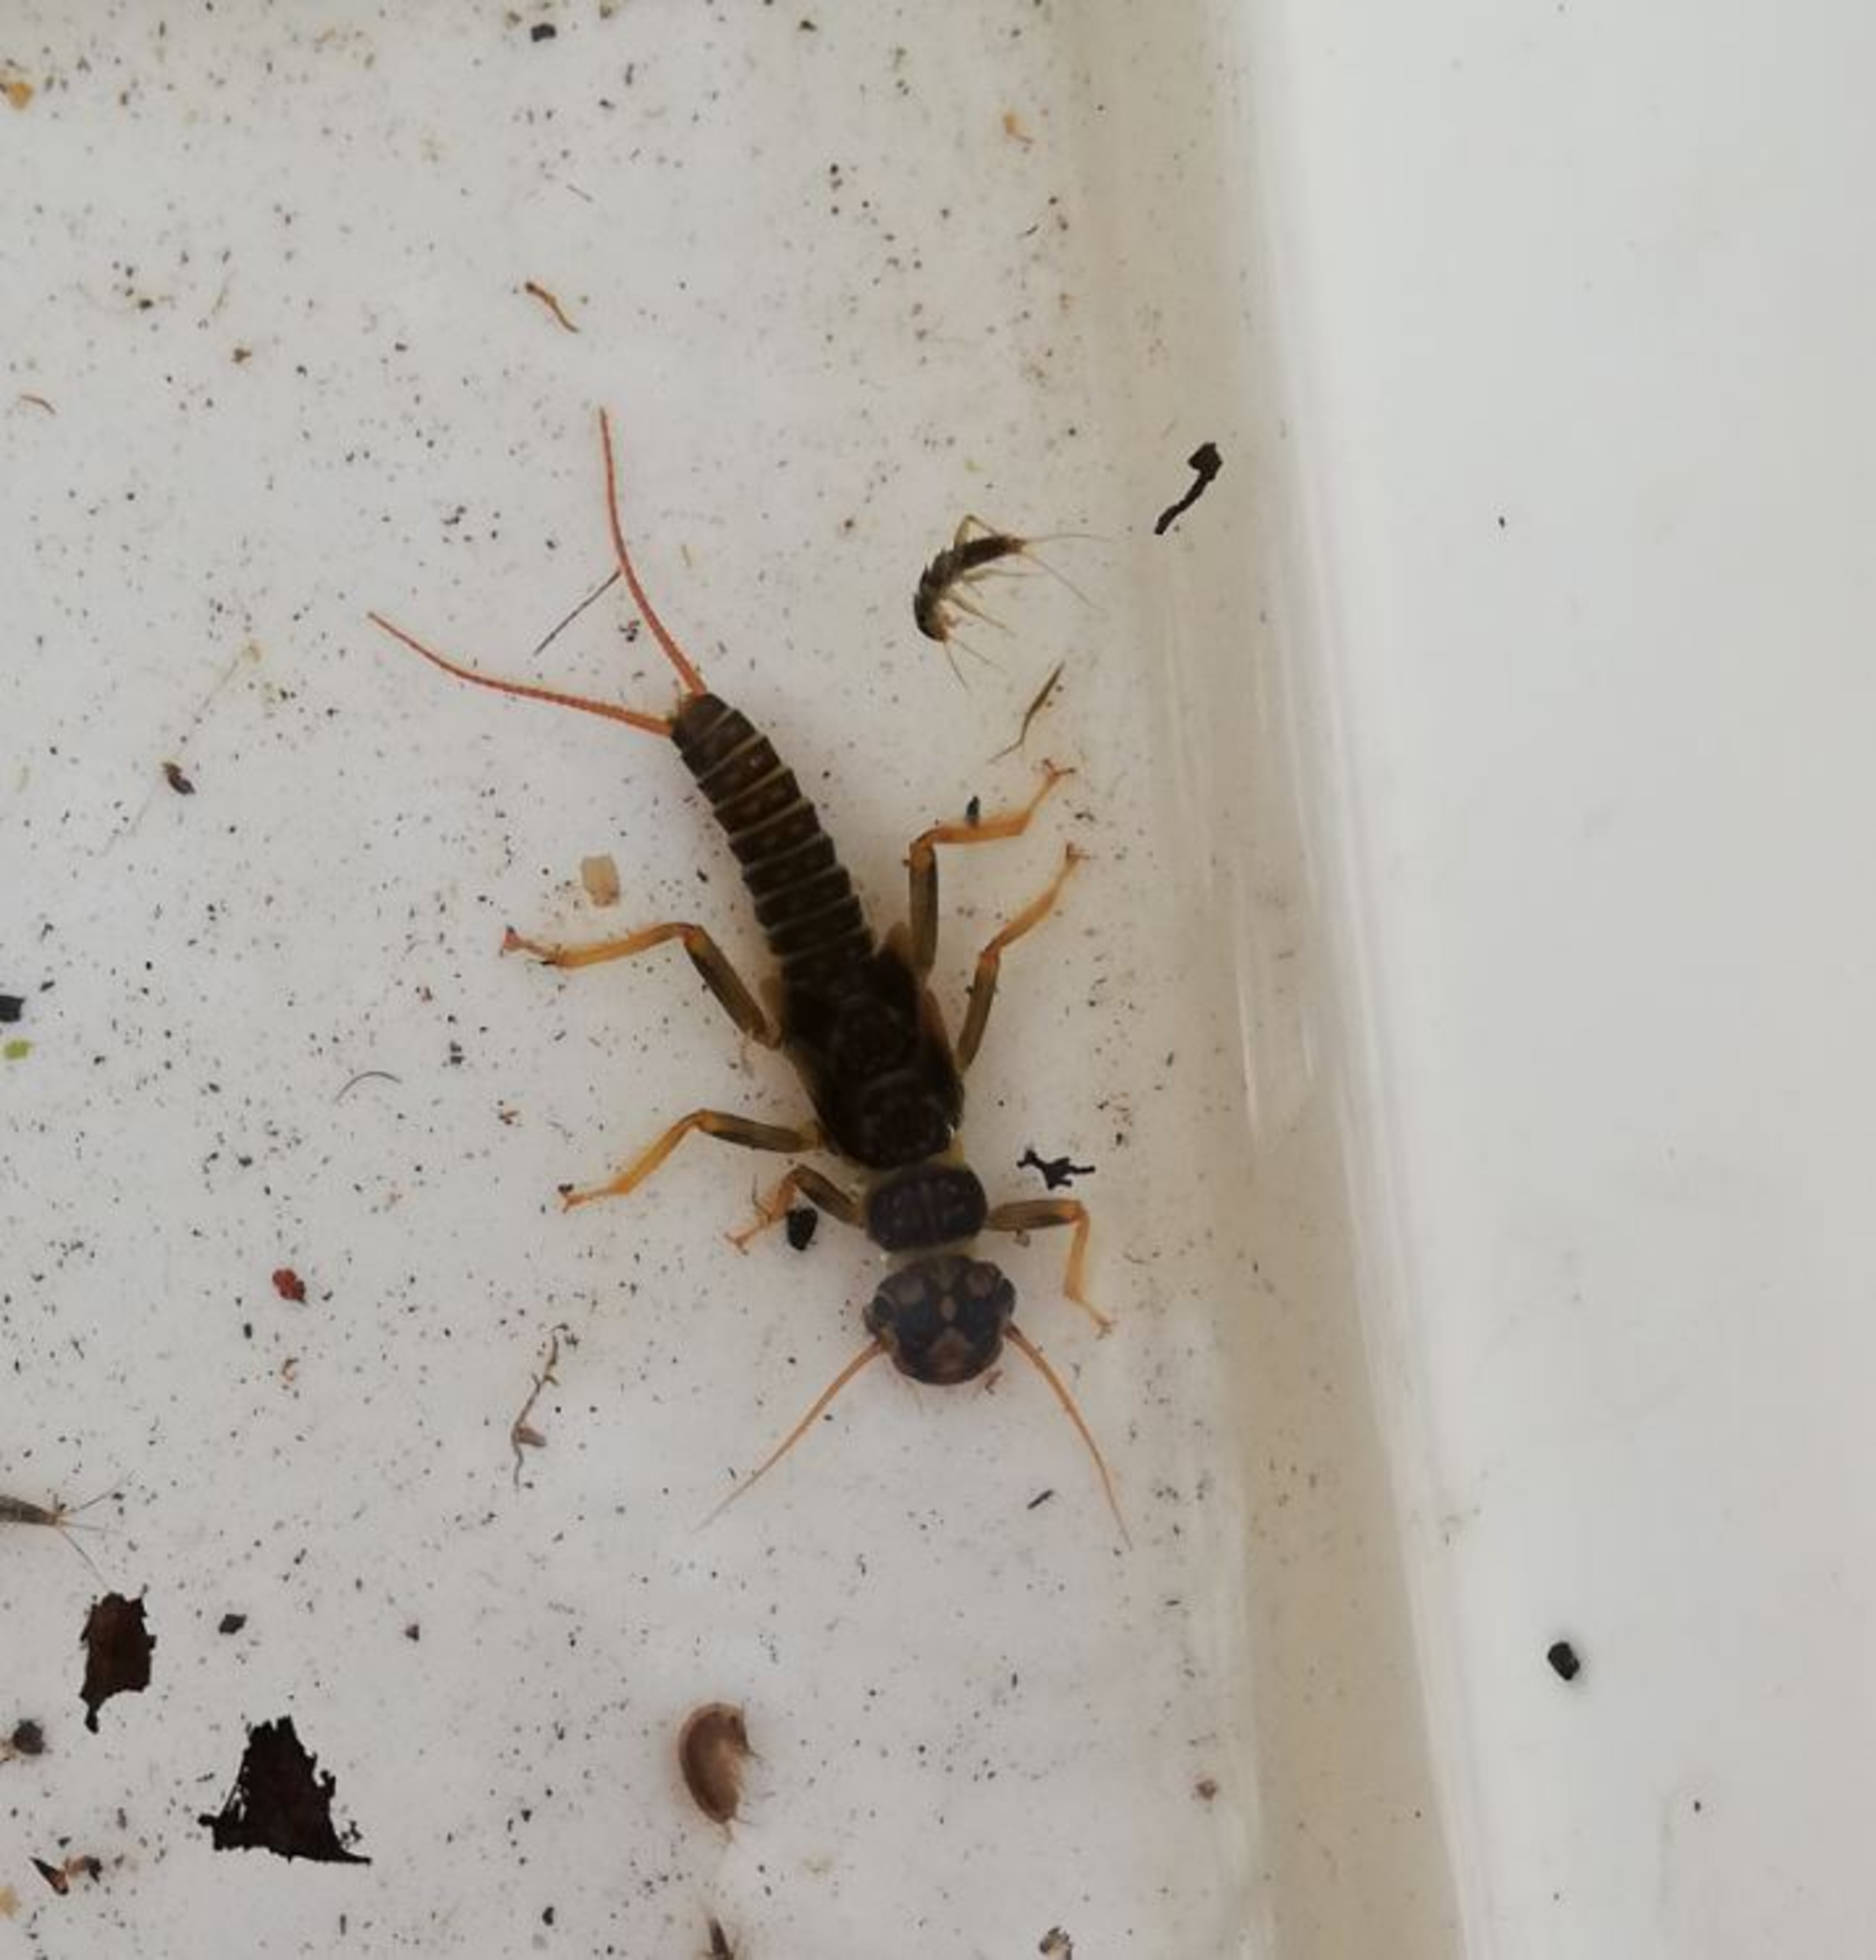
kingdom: Animalia
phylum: Arthropoda
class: Insecta
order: Plecoptera
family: Perlodidae
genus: Perlodes
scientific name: Perlodes microcephalus
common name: Stor slørvinge
